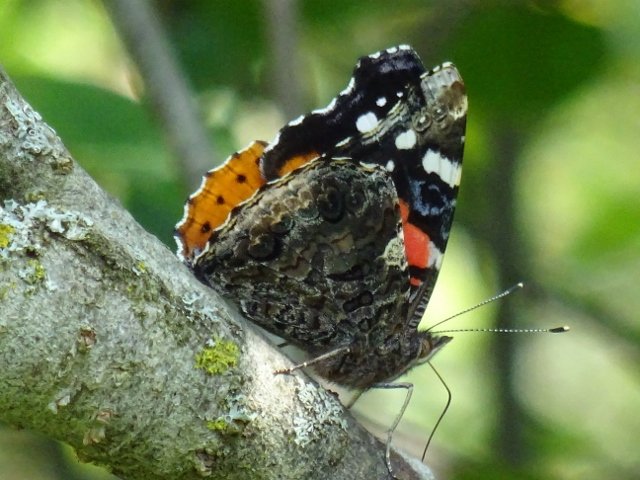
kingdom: Animalia
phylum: Arthropoda
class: Insecta
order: Lepidoptera
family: Nymphalidae
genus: Vanessa
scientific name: Vanessa atalanta
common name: Red Admiral
